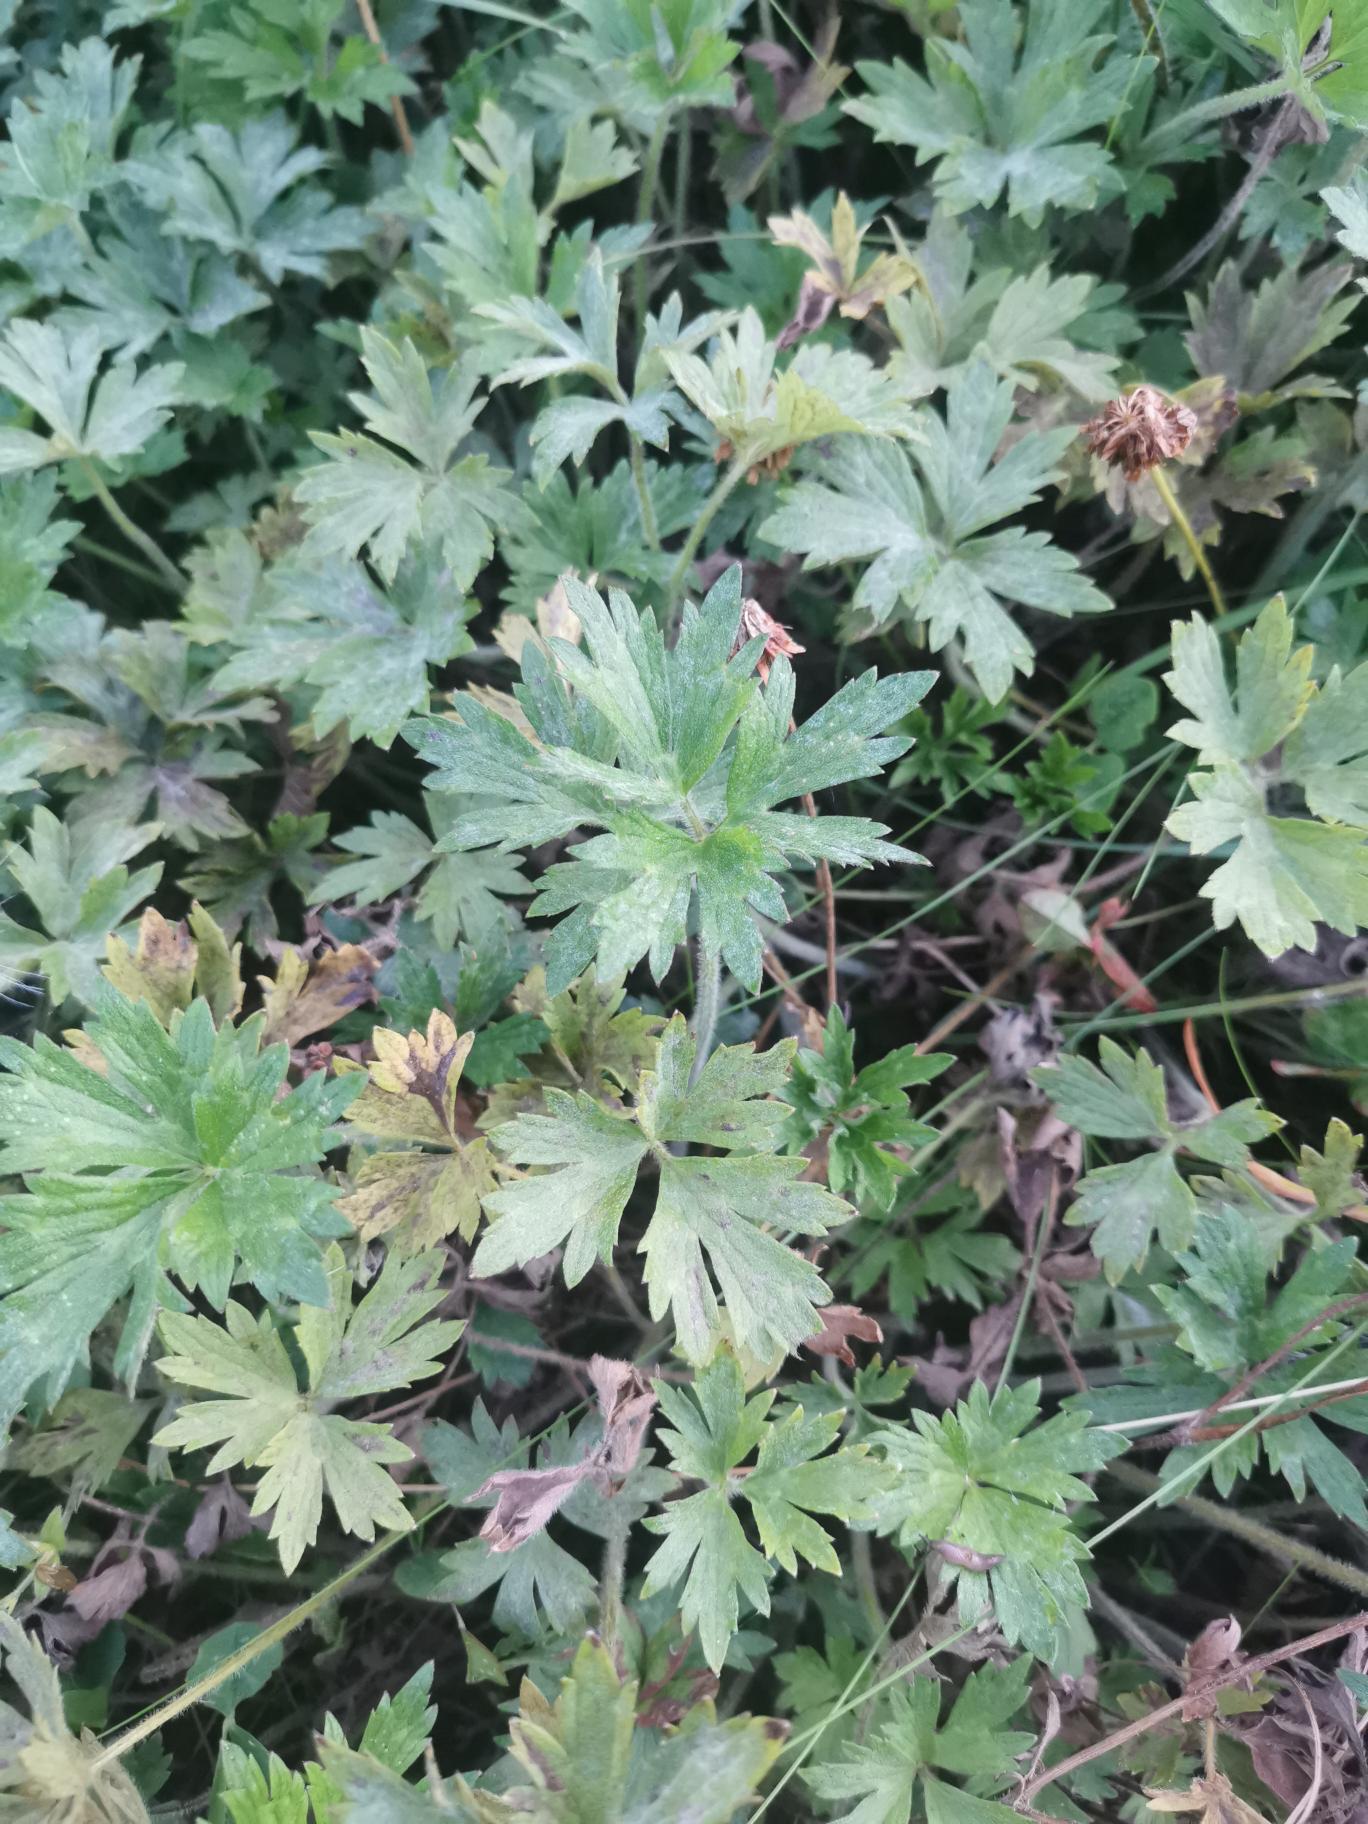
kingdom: Plantae
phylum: Tracheophyta
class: Magnoliopsida
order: Ranunculales
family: Ranunculaceae
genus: Ranunculus
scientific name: Ranunculus repens
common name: Lav ranunkel
